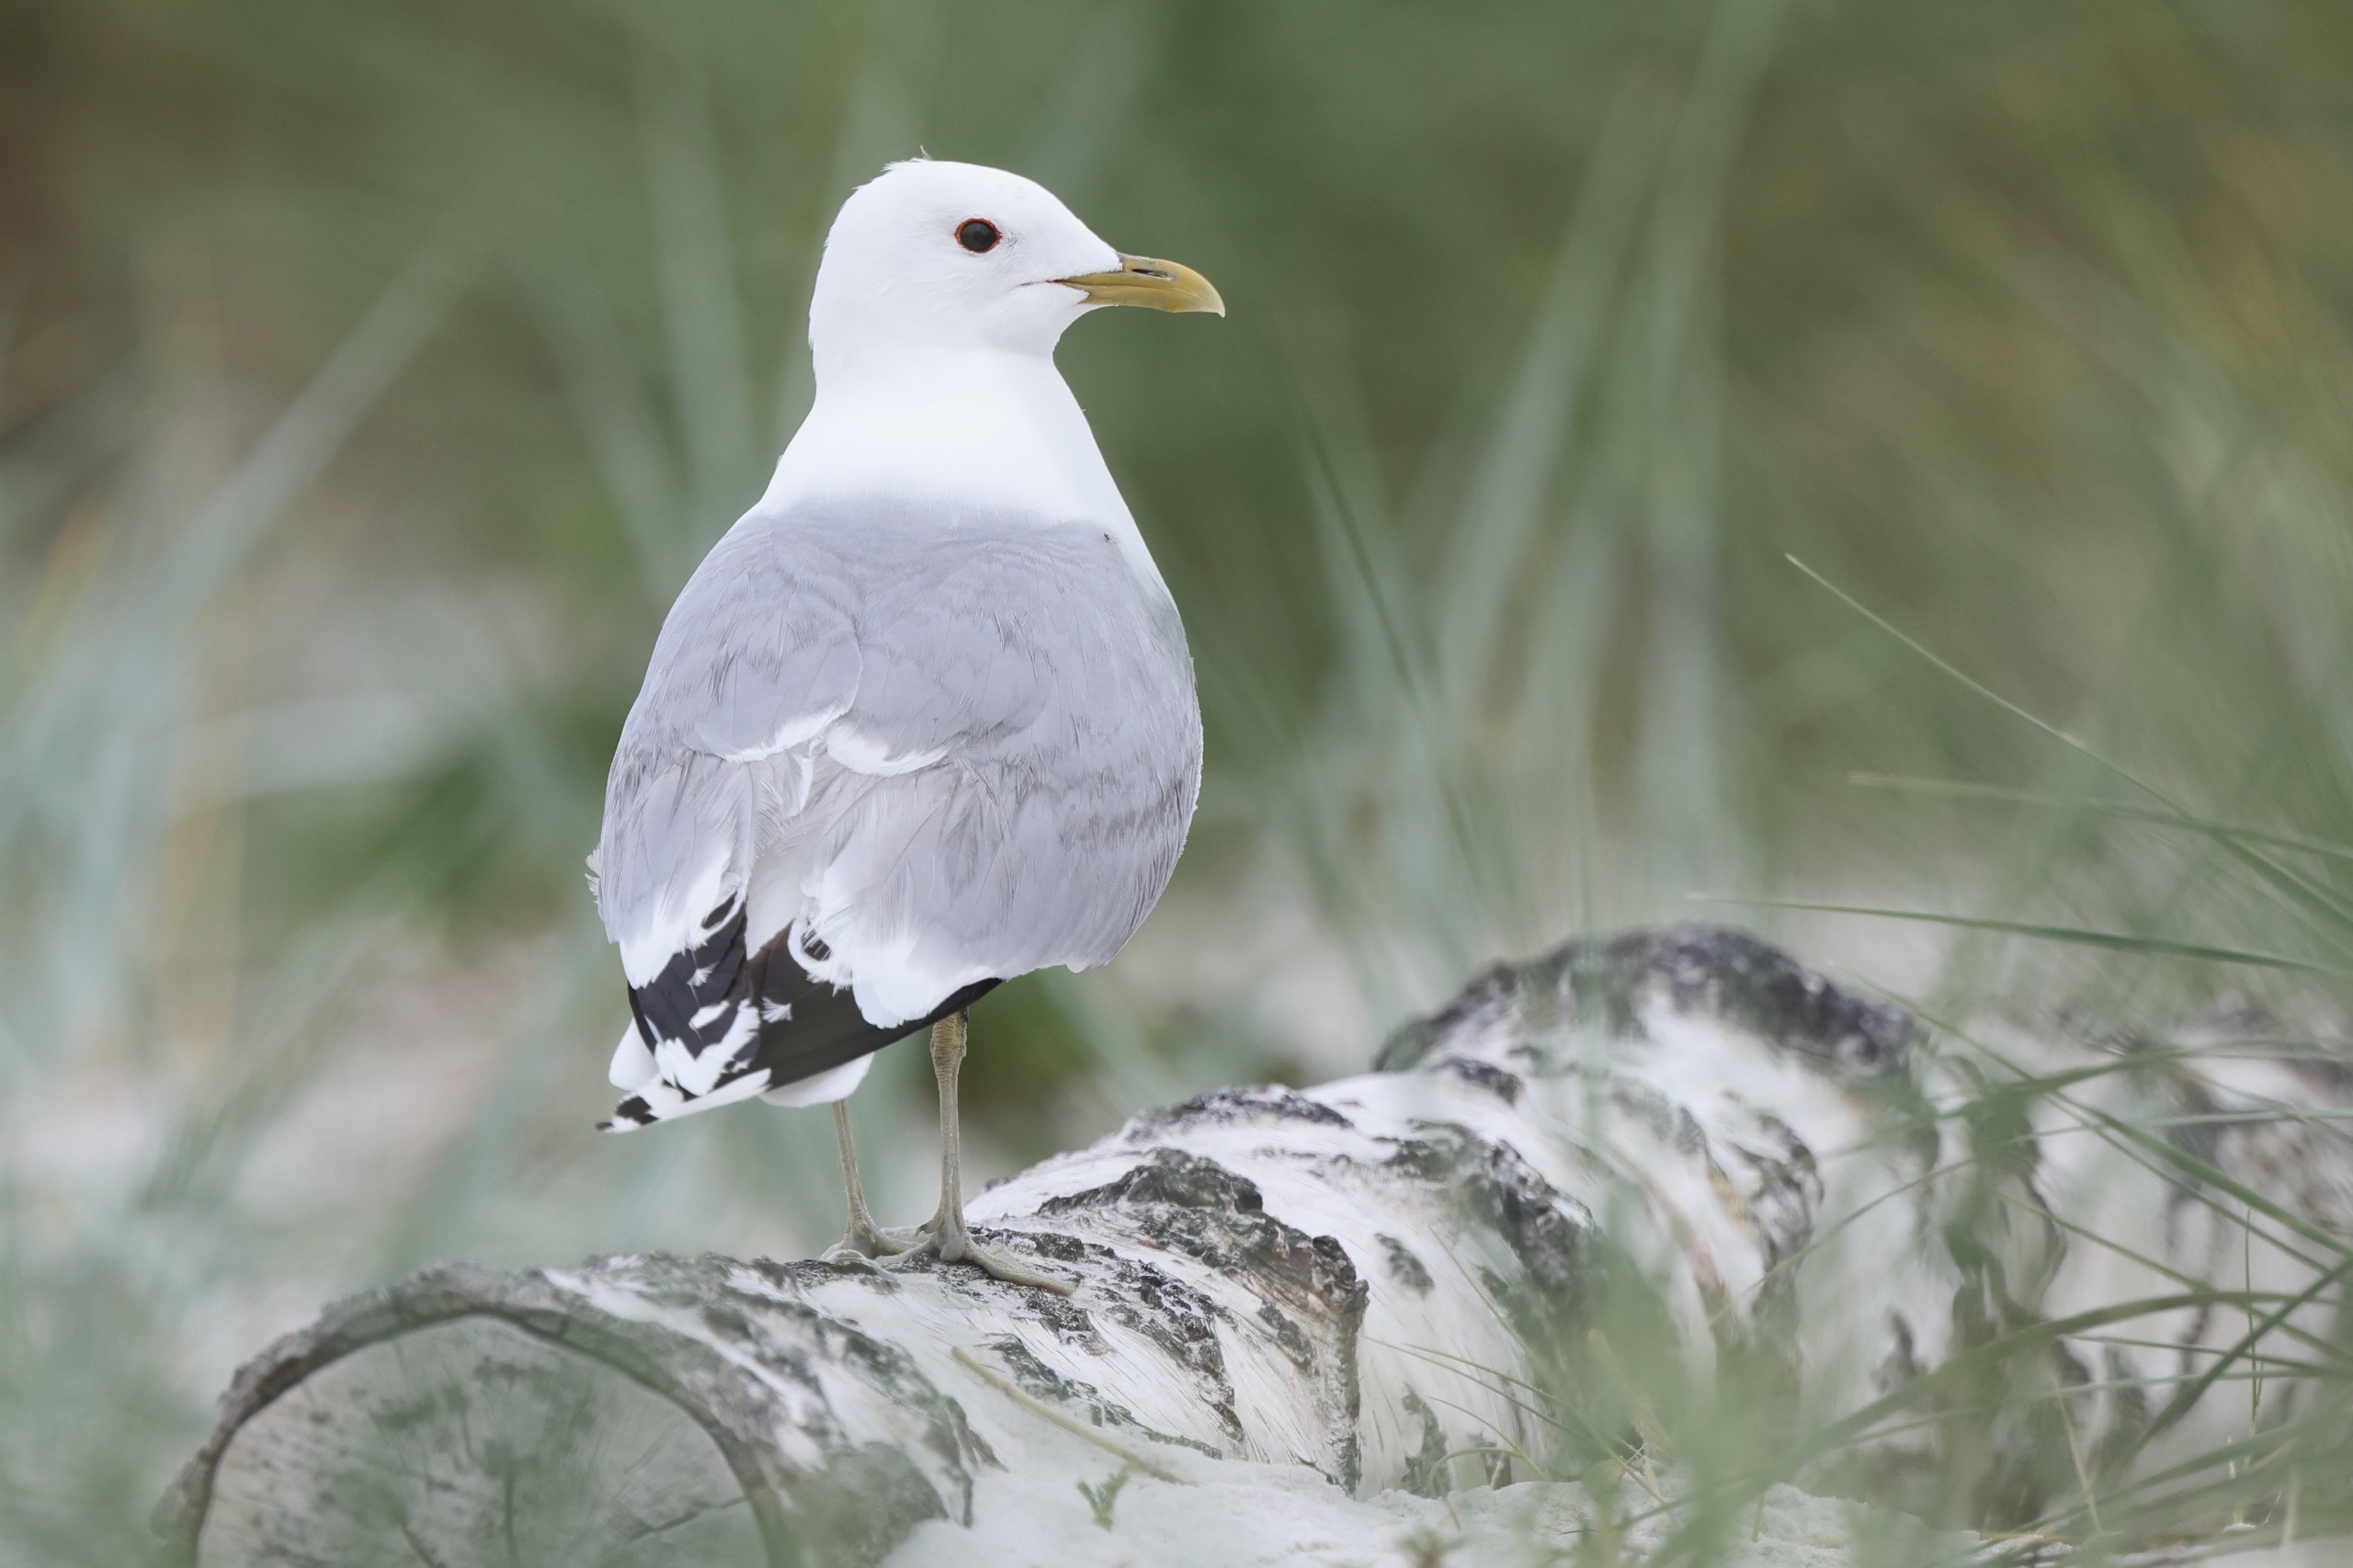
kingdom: Animalia
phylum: Chordata
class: Aves
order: Charadriiformes
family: Laridae
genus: Larus
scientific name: Larus canus
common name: Stormmåge
